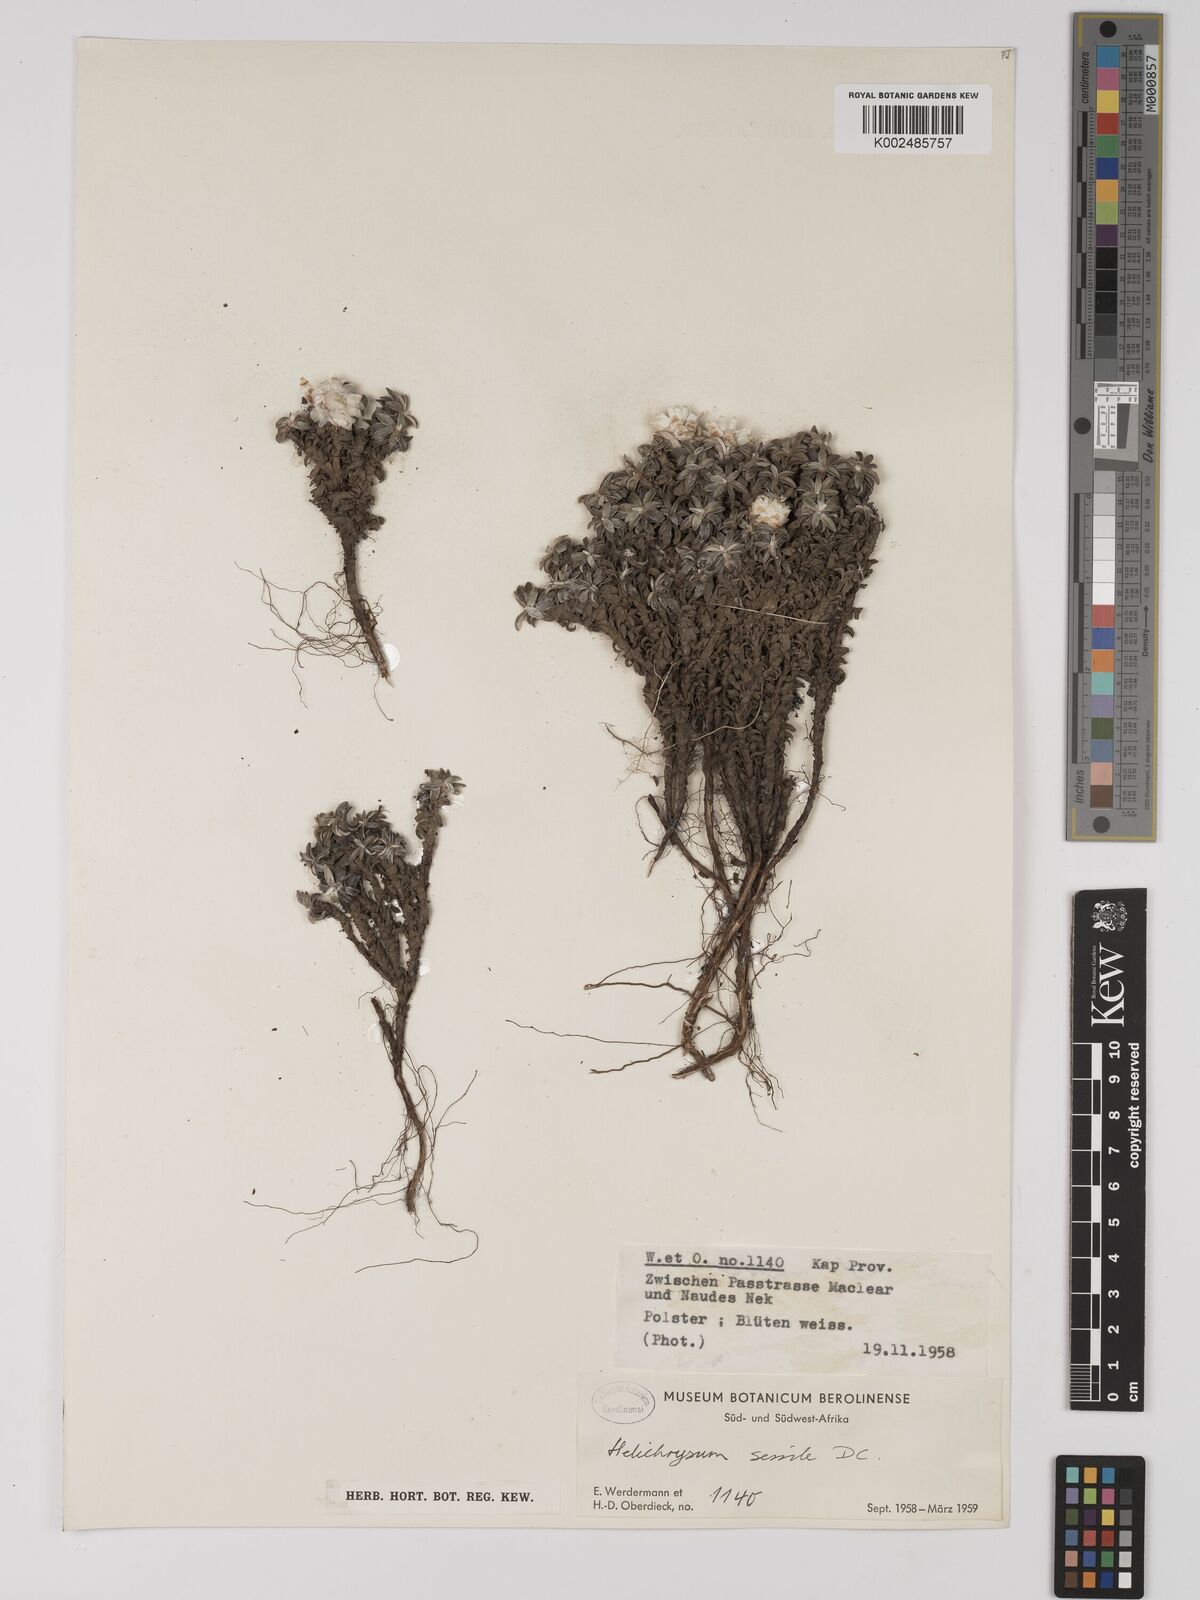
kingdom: Plantae
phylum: Tracheophyta
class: Magnoliopsida
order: Asterales
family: Asteraceae
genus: Helichrysum
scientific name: Helichrysum sessilioides
